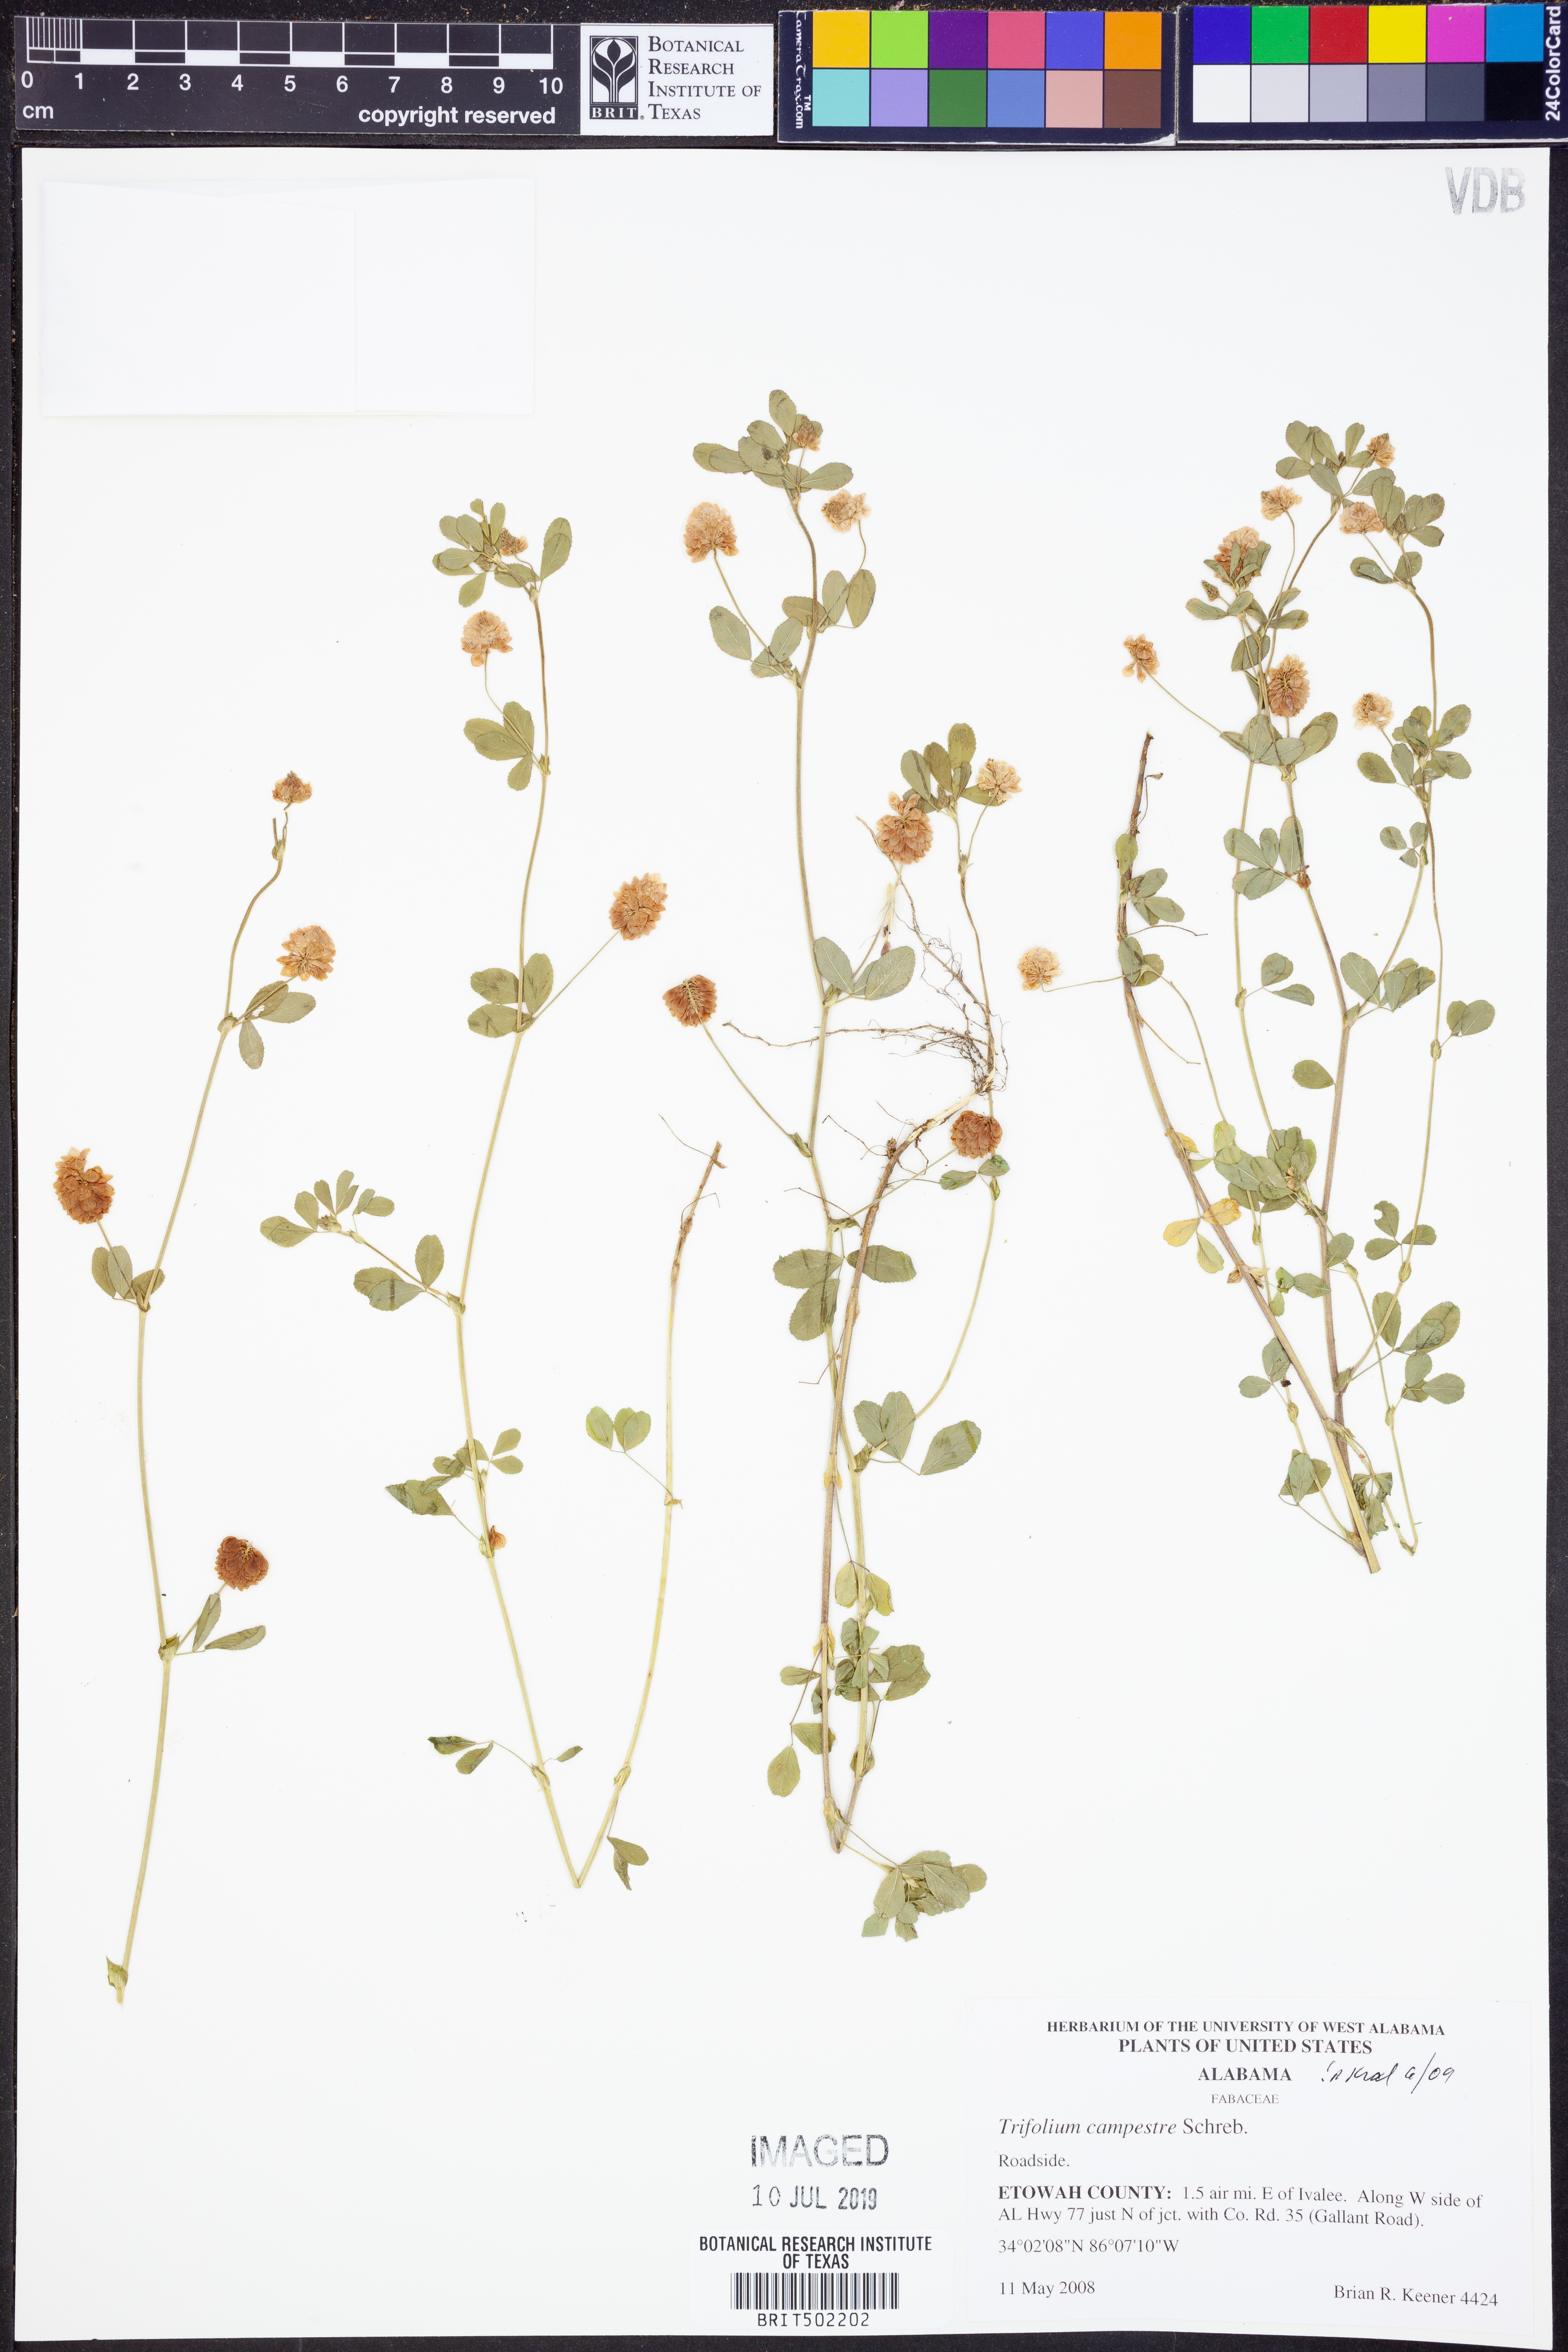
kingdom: Plantae
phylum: Tracheophyta
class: Magnoliopsida
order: Fabales
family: Fabaceae
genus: Trifolium
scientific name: Trifolium campestre
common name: Field clover
